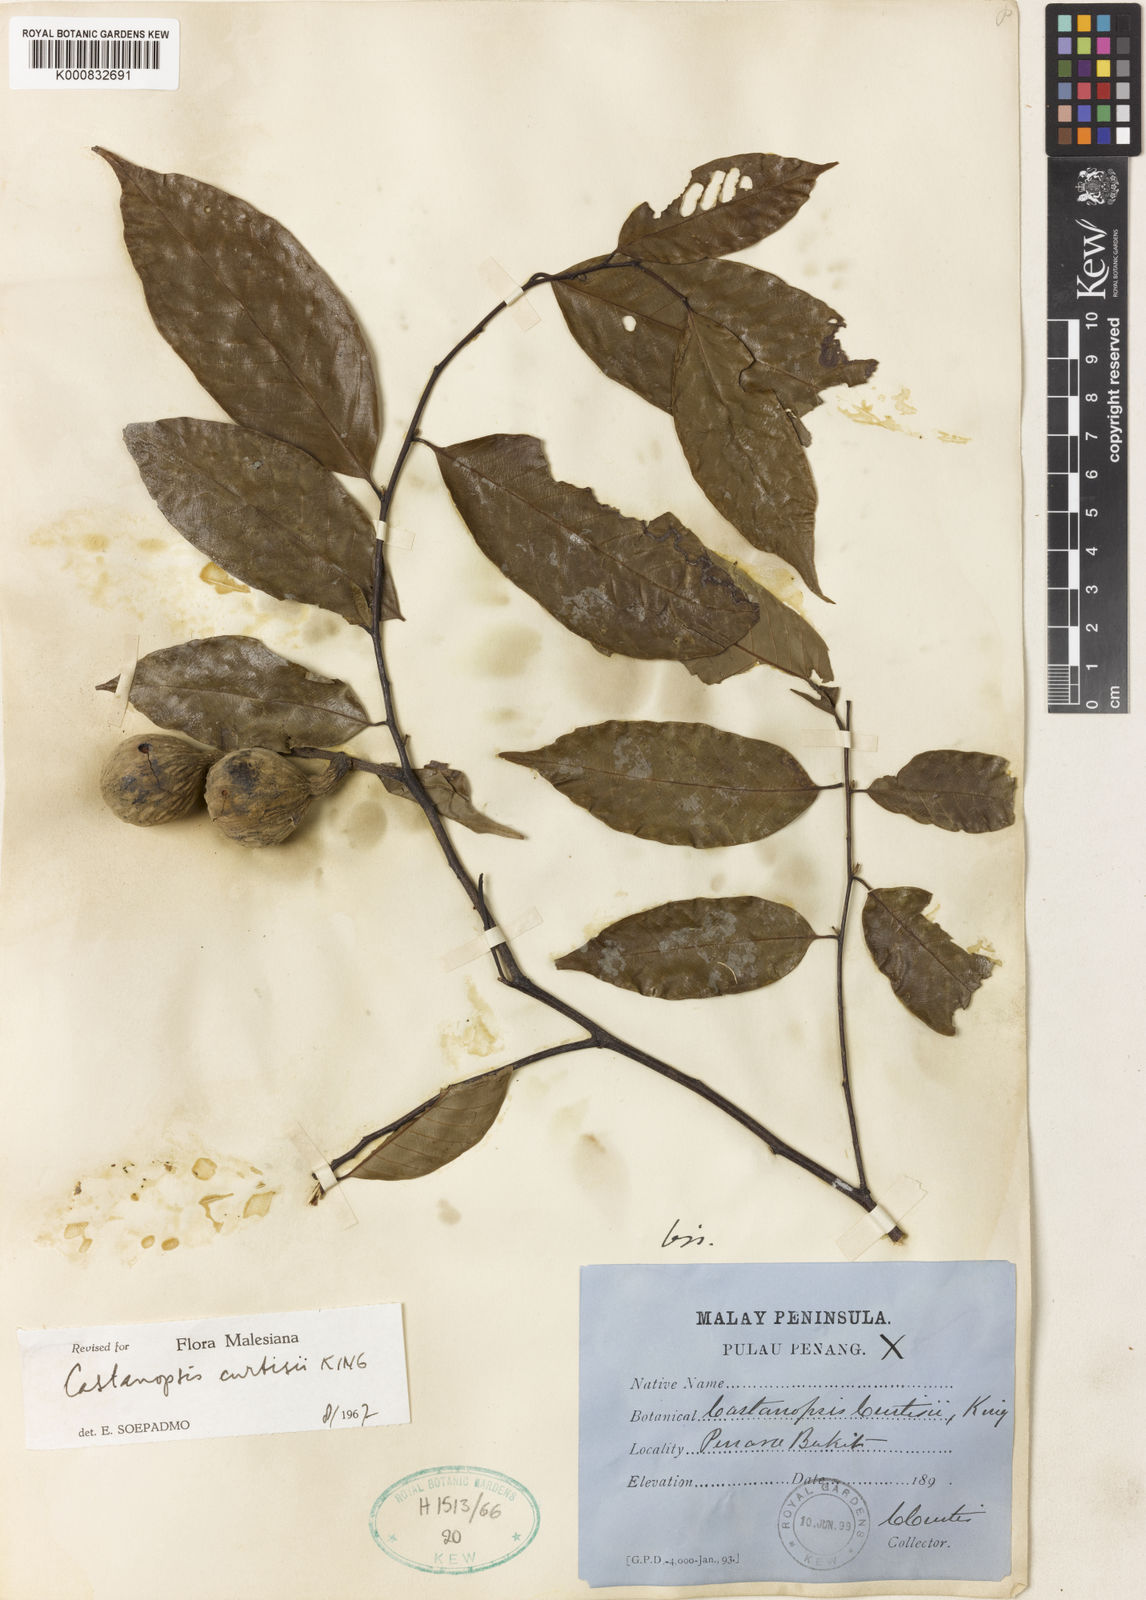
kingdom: Plantae
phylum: Tracheophyta
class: Magnoliopsida
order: Fagales
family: Fagaceae
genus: Castanopsis
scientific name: Castanopsis curtisii
